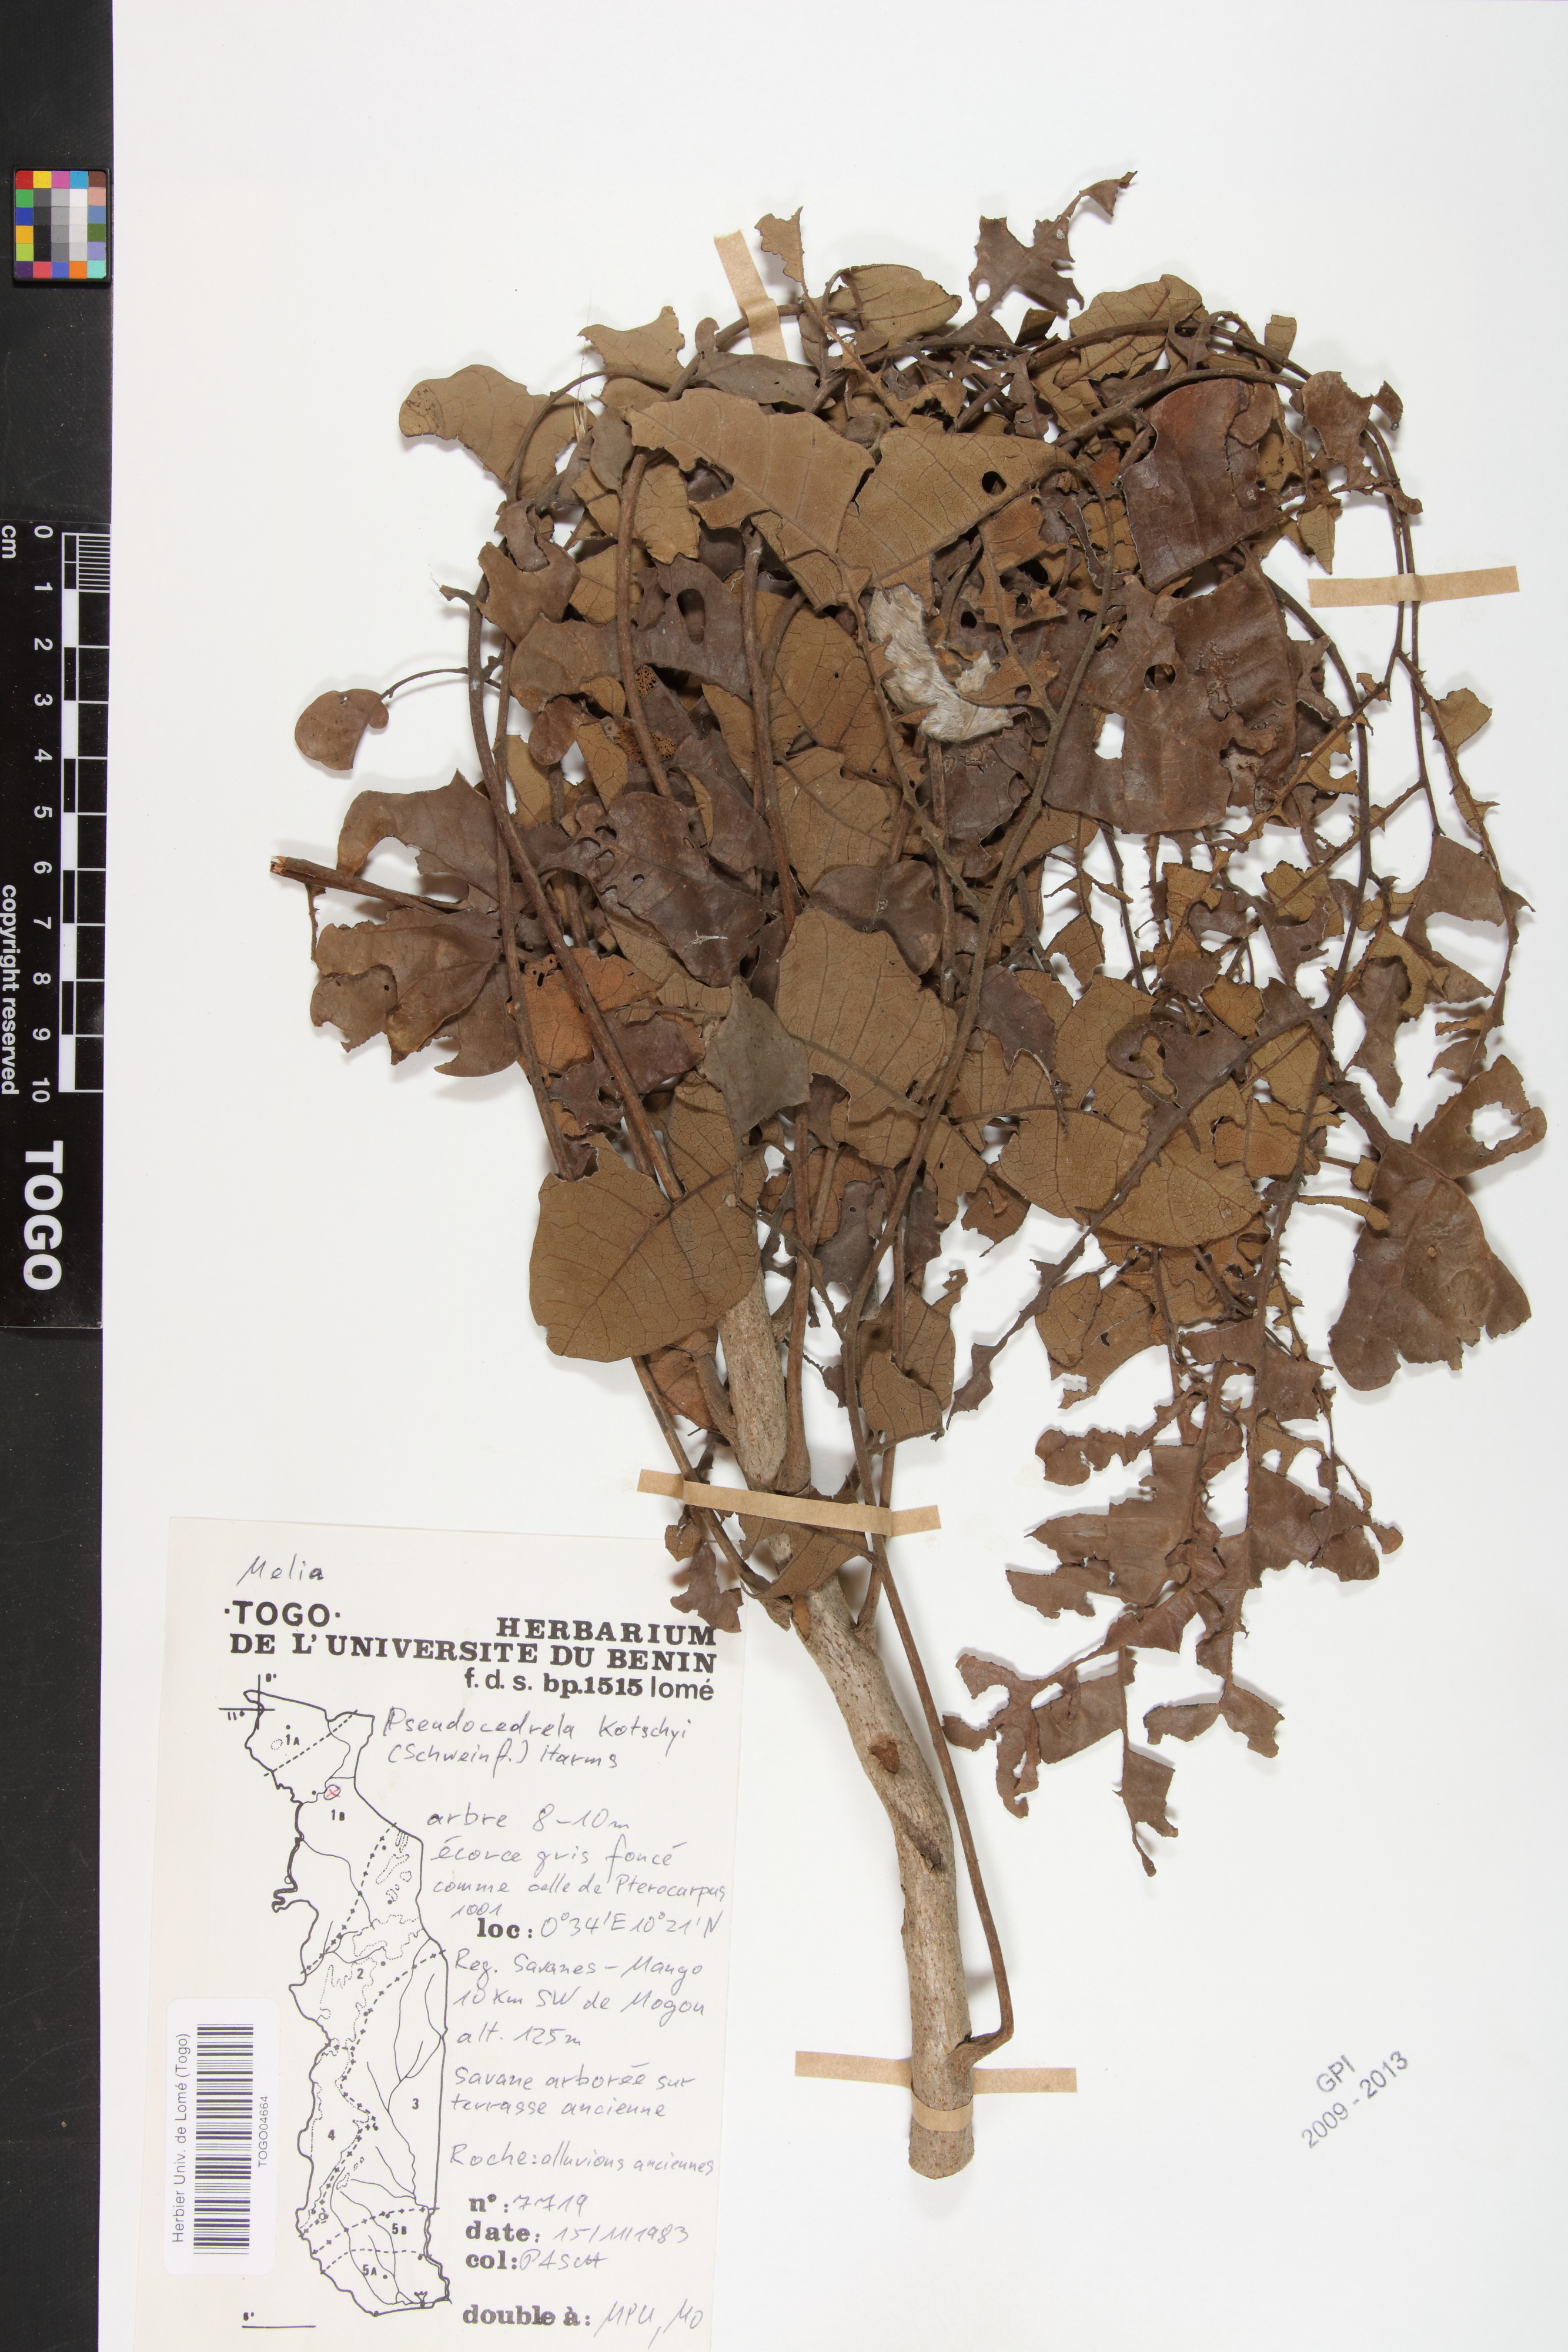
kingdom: Plantae
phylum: Tracheophyta
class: Magnoliopsida
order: Sapindales
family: Meliaceae
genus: Pseudocedrela
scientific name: Pseudocedrela kotschyi
